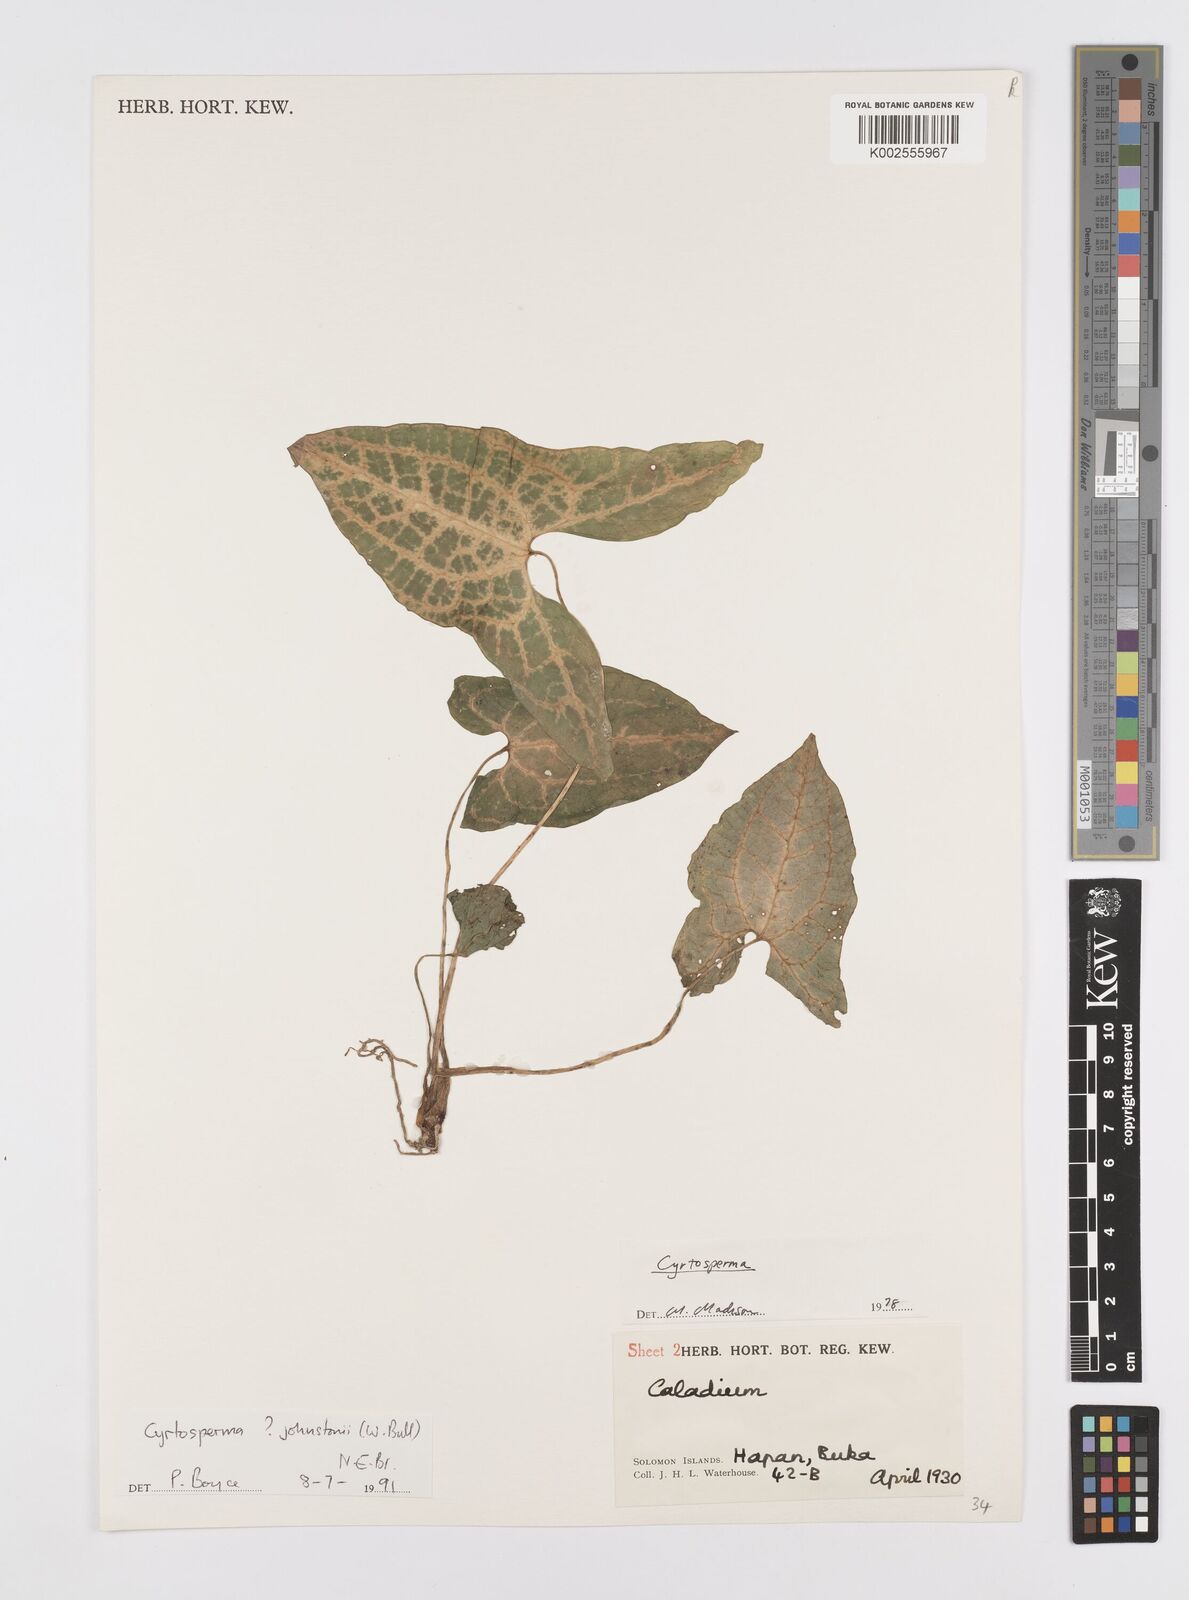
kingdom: Plantae
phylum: Tracheophyta
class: Liliopsida
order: Alismatales
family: Araceae
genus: Cyrtosperma
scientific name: Cyrtosperma johnstonii
